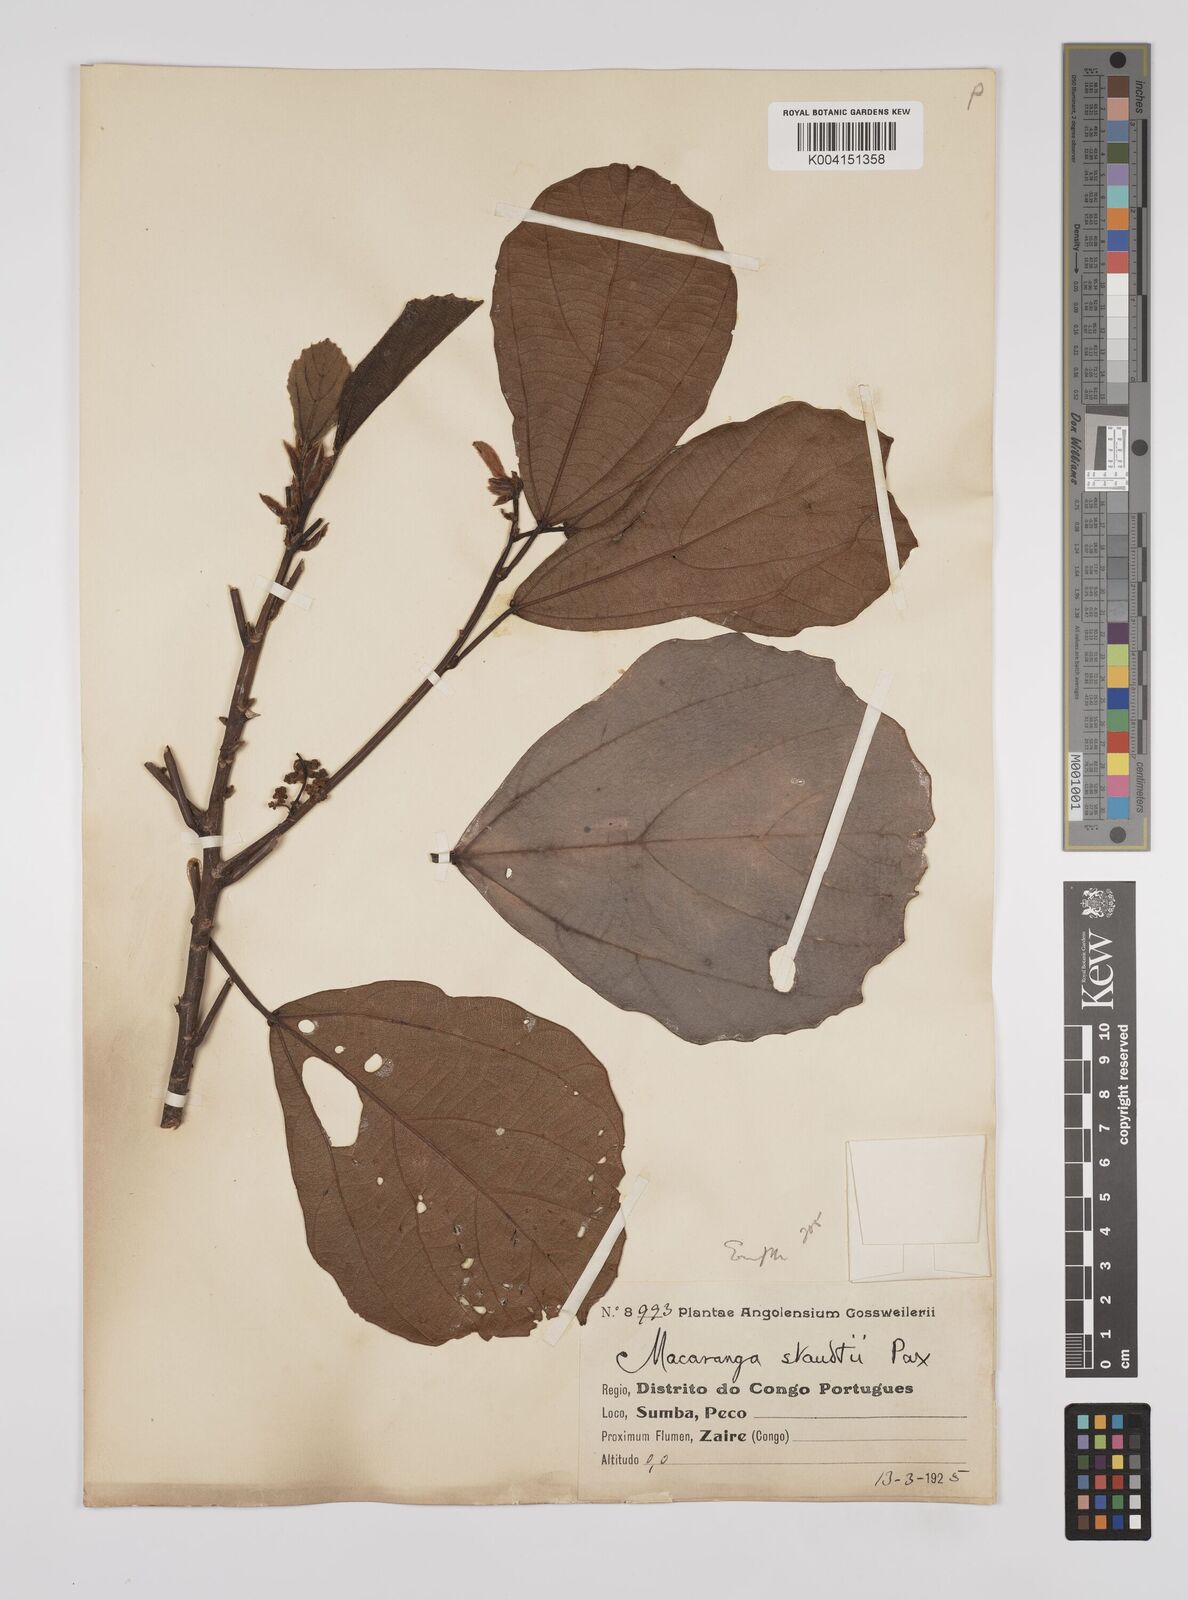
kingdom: Plantae
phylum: Tracheophyta
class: Magnoliopsida
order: Malpighiales
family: Euphorbiaceae
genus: Macaranga
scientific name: Macaranga staudtii
